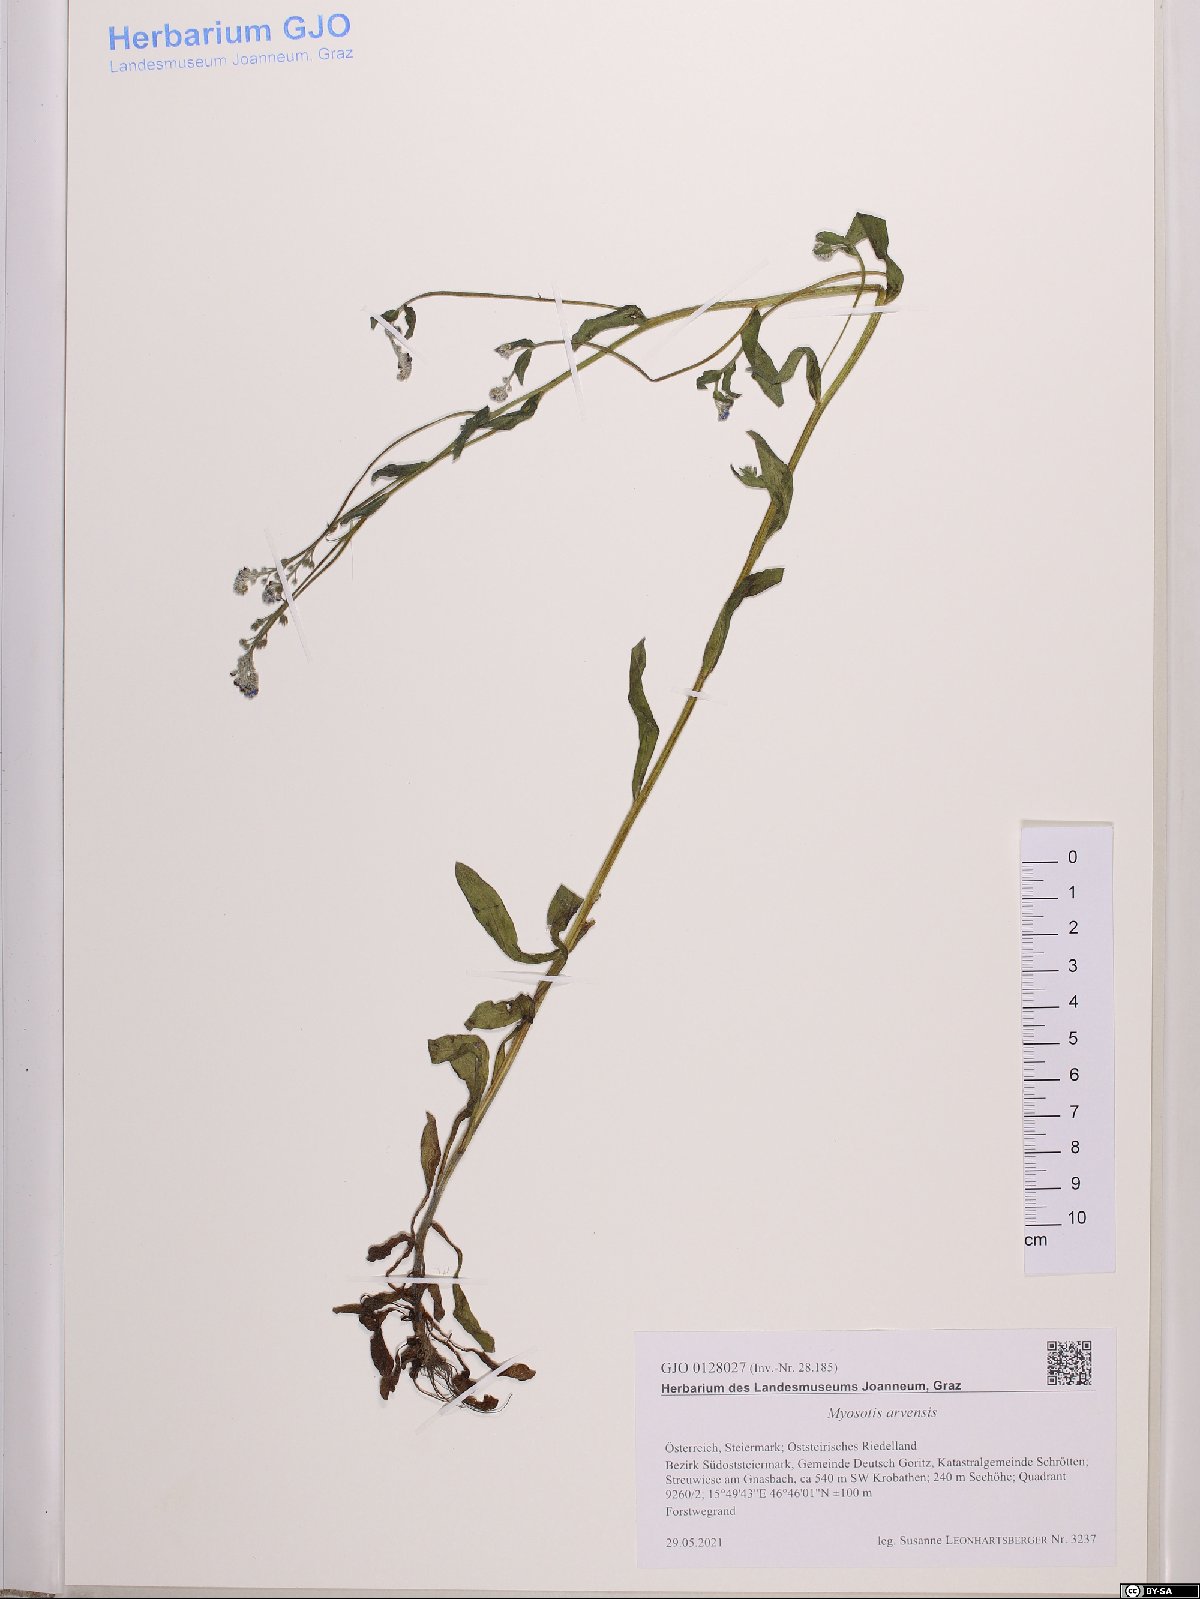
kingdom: Plantae
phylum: Tracheophyta
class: Magnoliopsida
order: Boraginales
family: Boraginaceae
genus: Myosotis
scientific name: Myosotis arvensis
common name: Field forget-me-not
